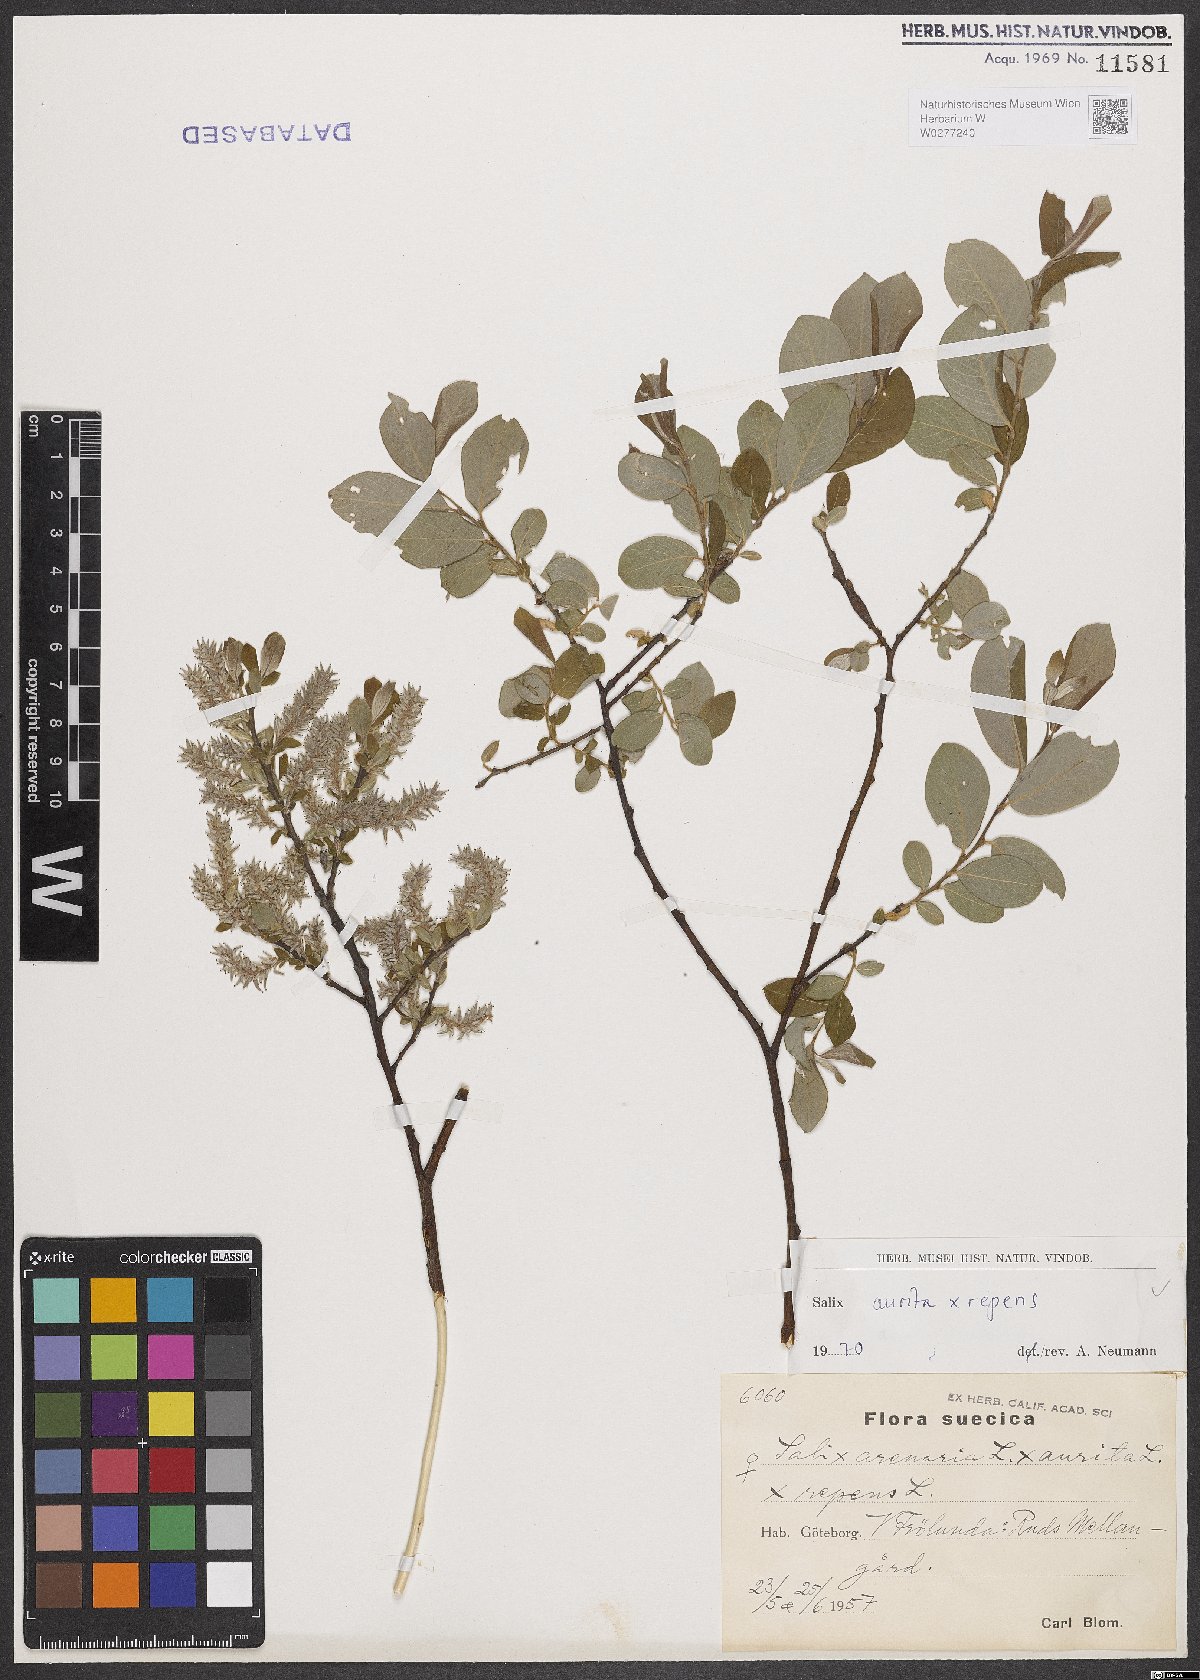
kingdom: Plantae
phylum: Tracheophyta
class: Magnoliopsida
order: Malpighiales
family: Salicaceae
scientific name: Salicaceae
